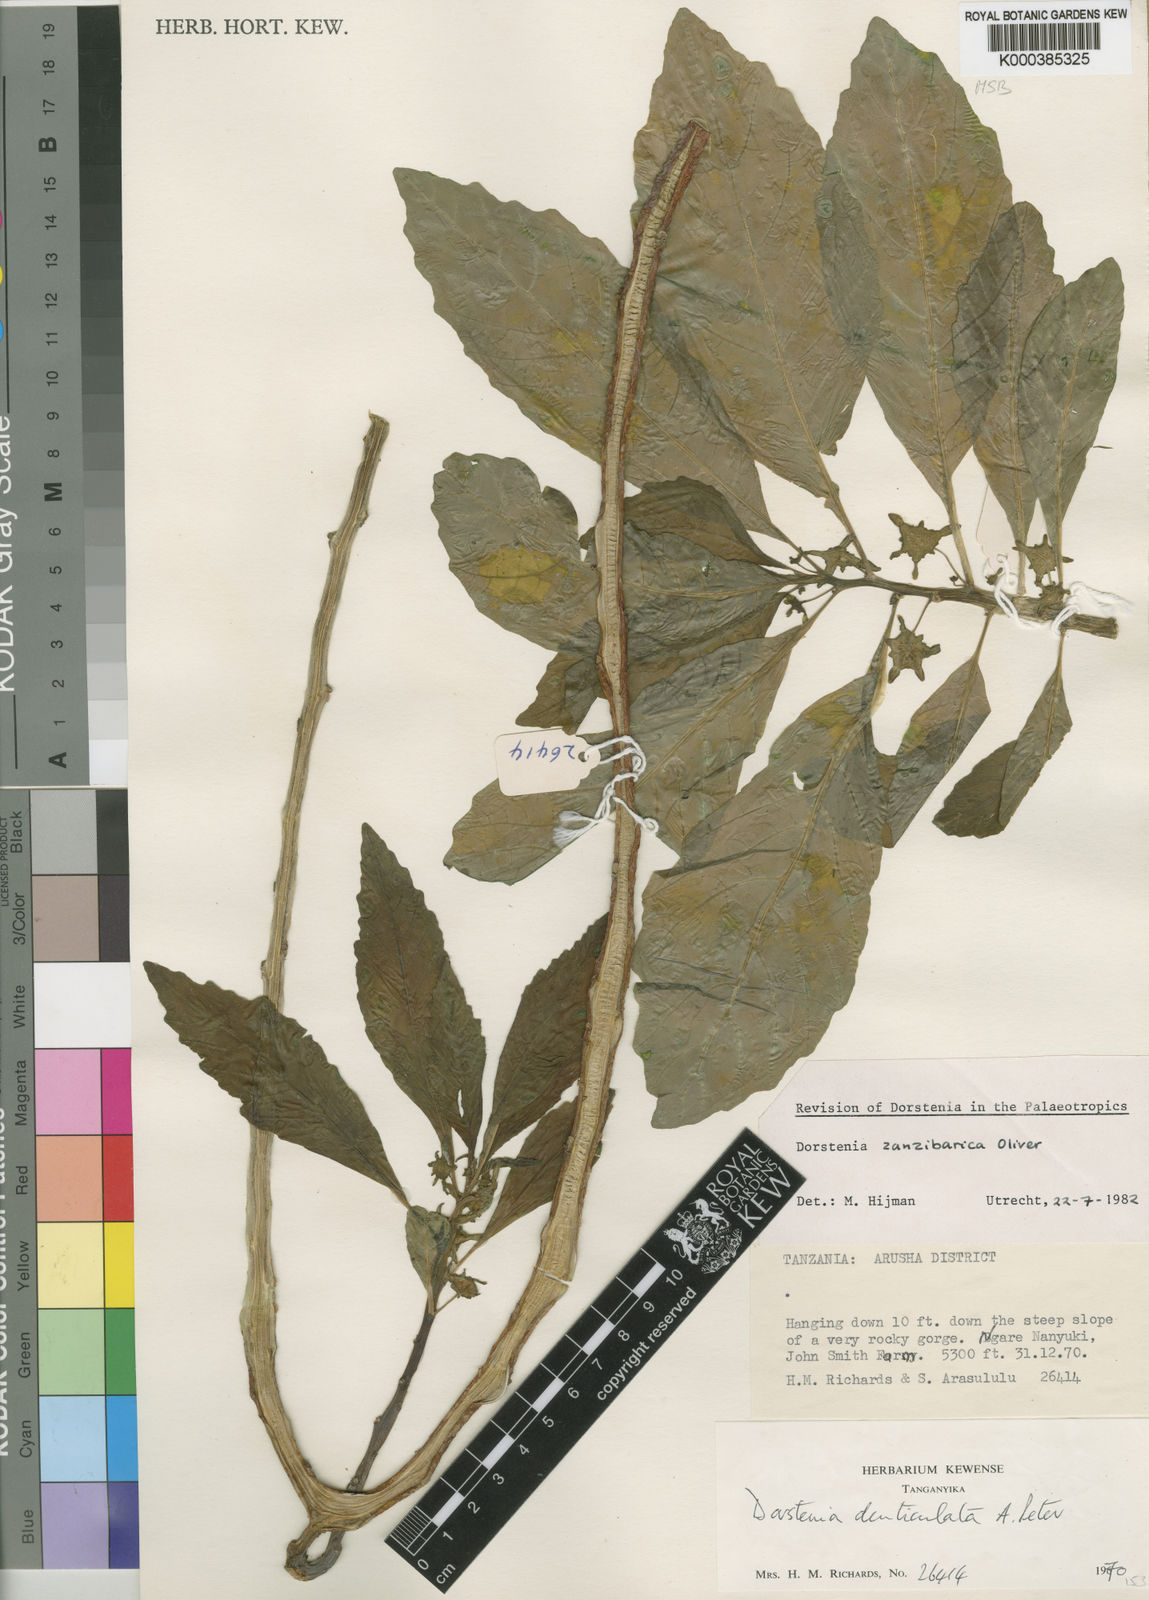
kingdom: Plantae
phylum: Tracheophyta
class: Magnoliopsida
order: Rosales
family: Moraceae
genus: Dorstenia
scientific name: Dorstenia zanzibarica
